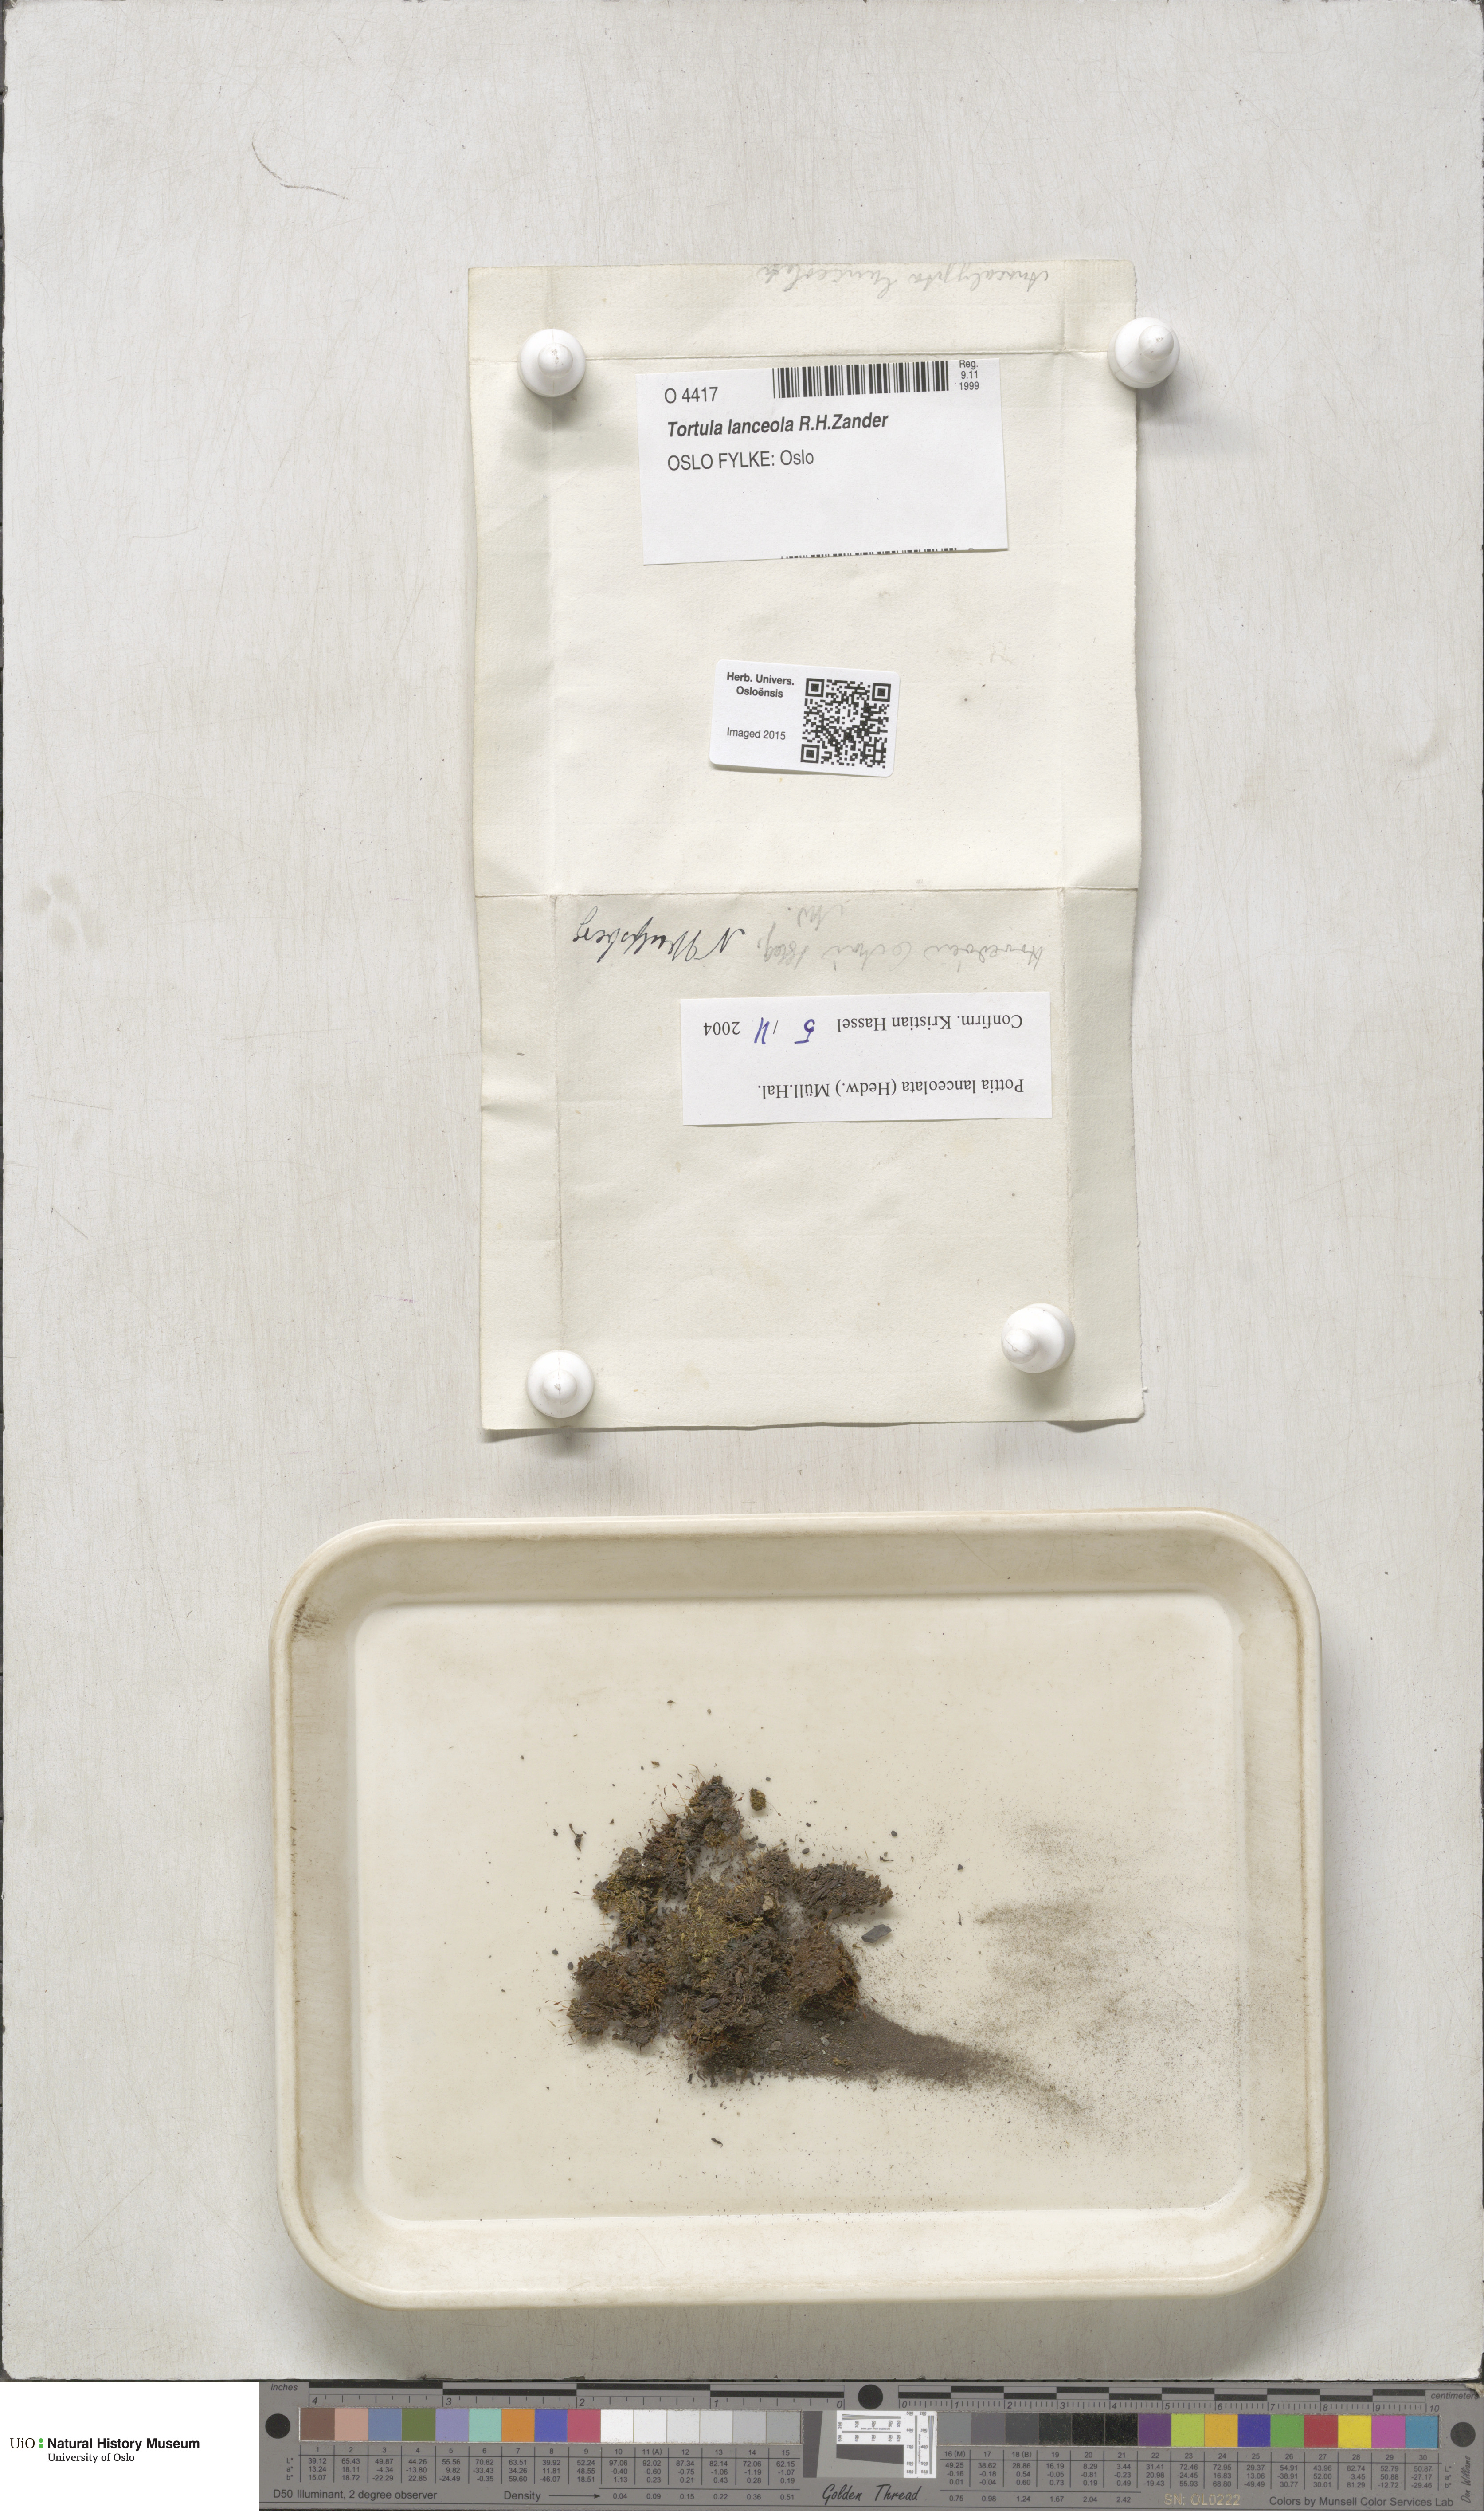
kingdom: Plantae
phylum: Bryophyta
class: Bryopsida
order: Pottiales
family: Pottiaceae
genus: Tortula
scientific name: Tortula lindbergii
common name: Lance-leaved pottia
